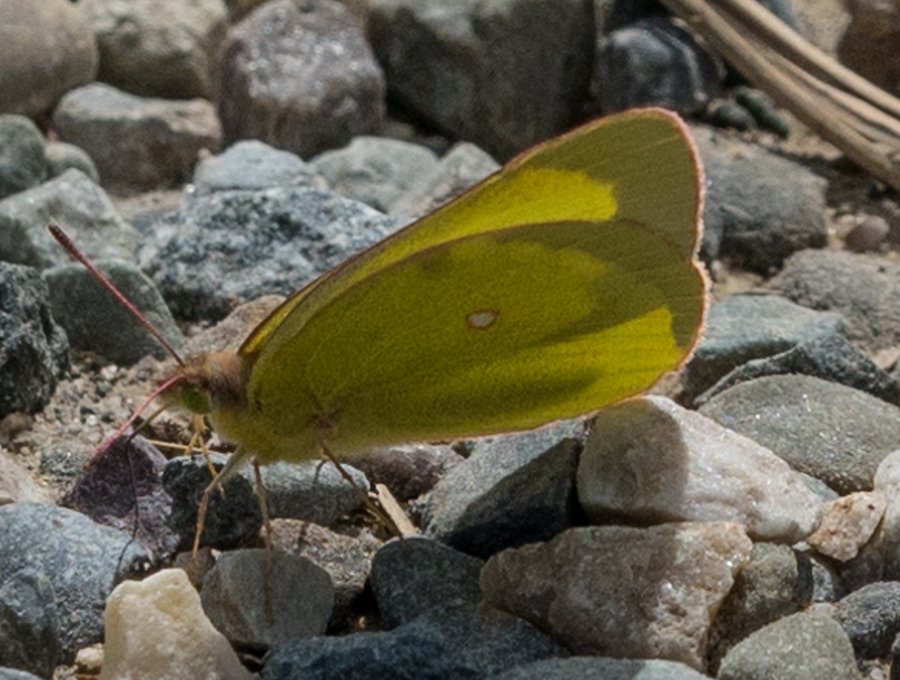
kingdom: Animalia
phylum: Arthropoda
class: Insecta
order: Lepidoptera
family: Pieridae
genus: Colias
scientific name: Colias interior
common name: Pink-edged Sulphur
